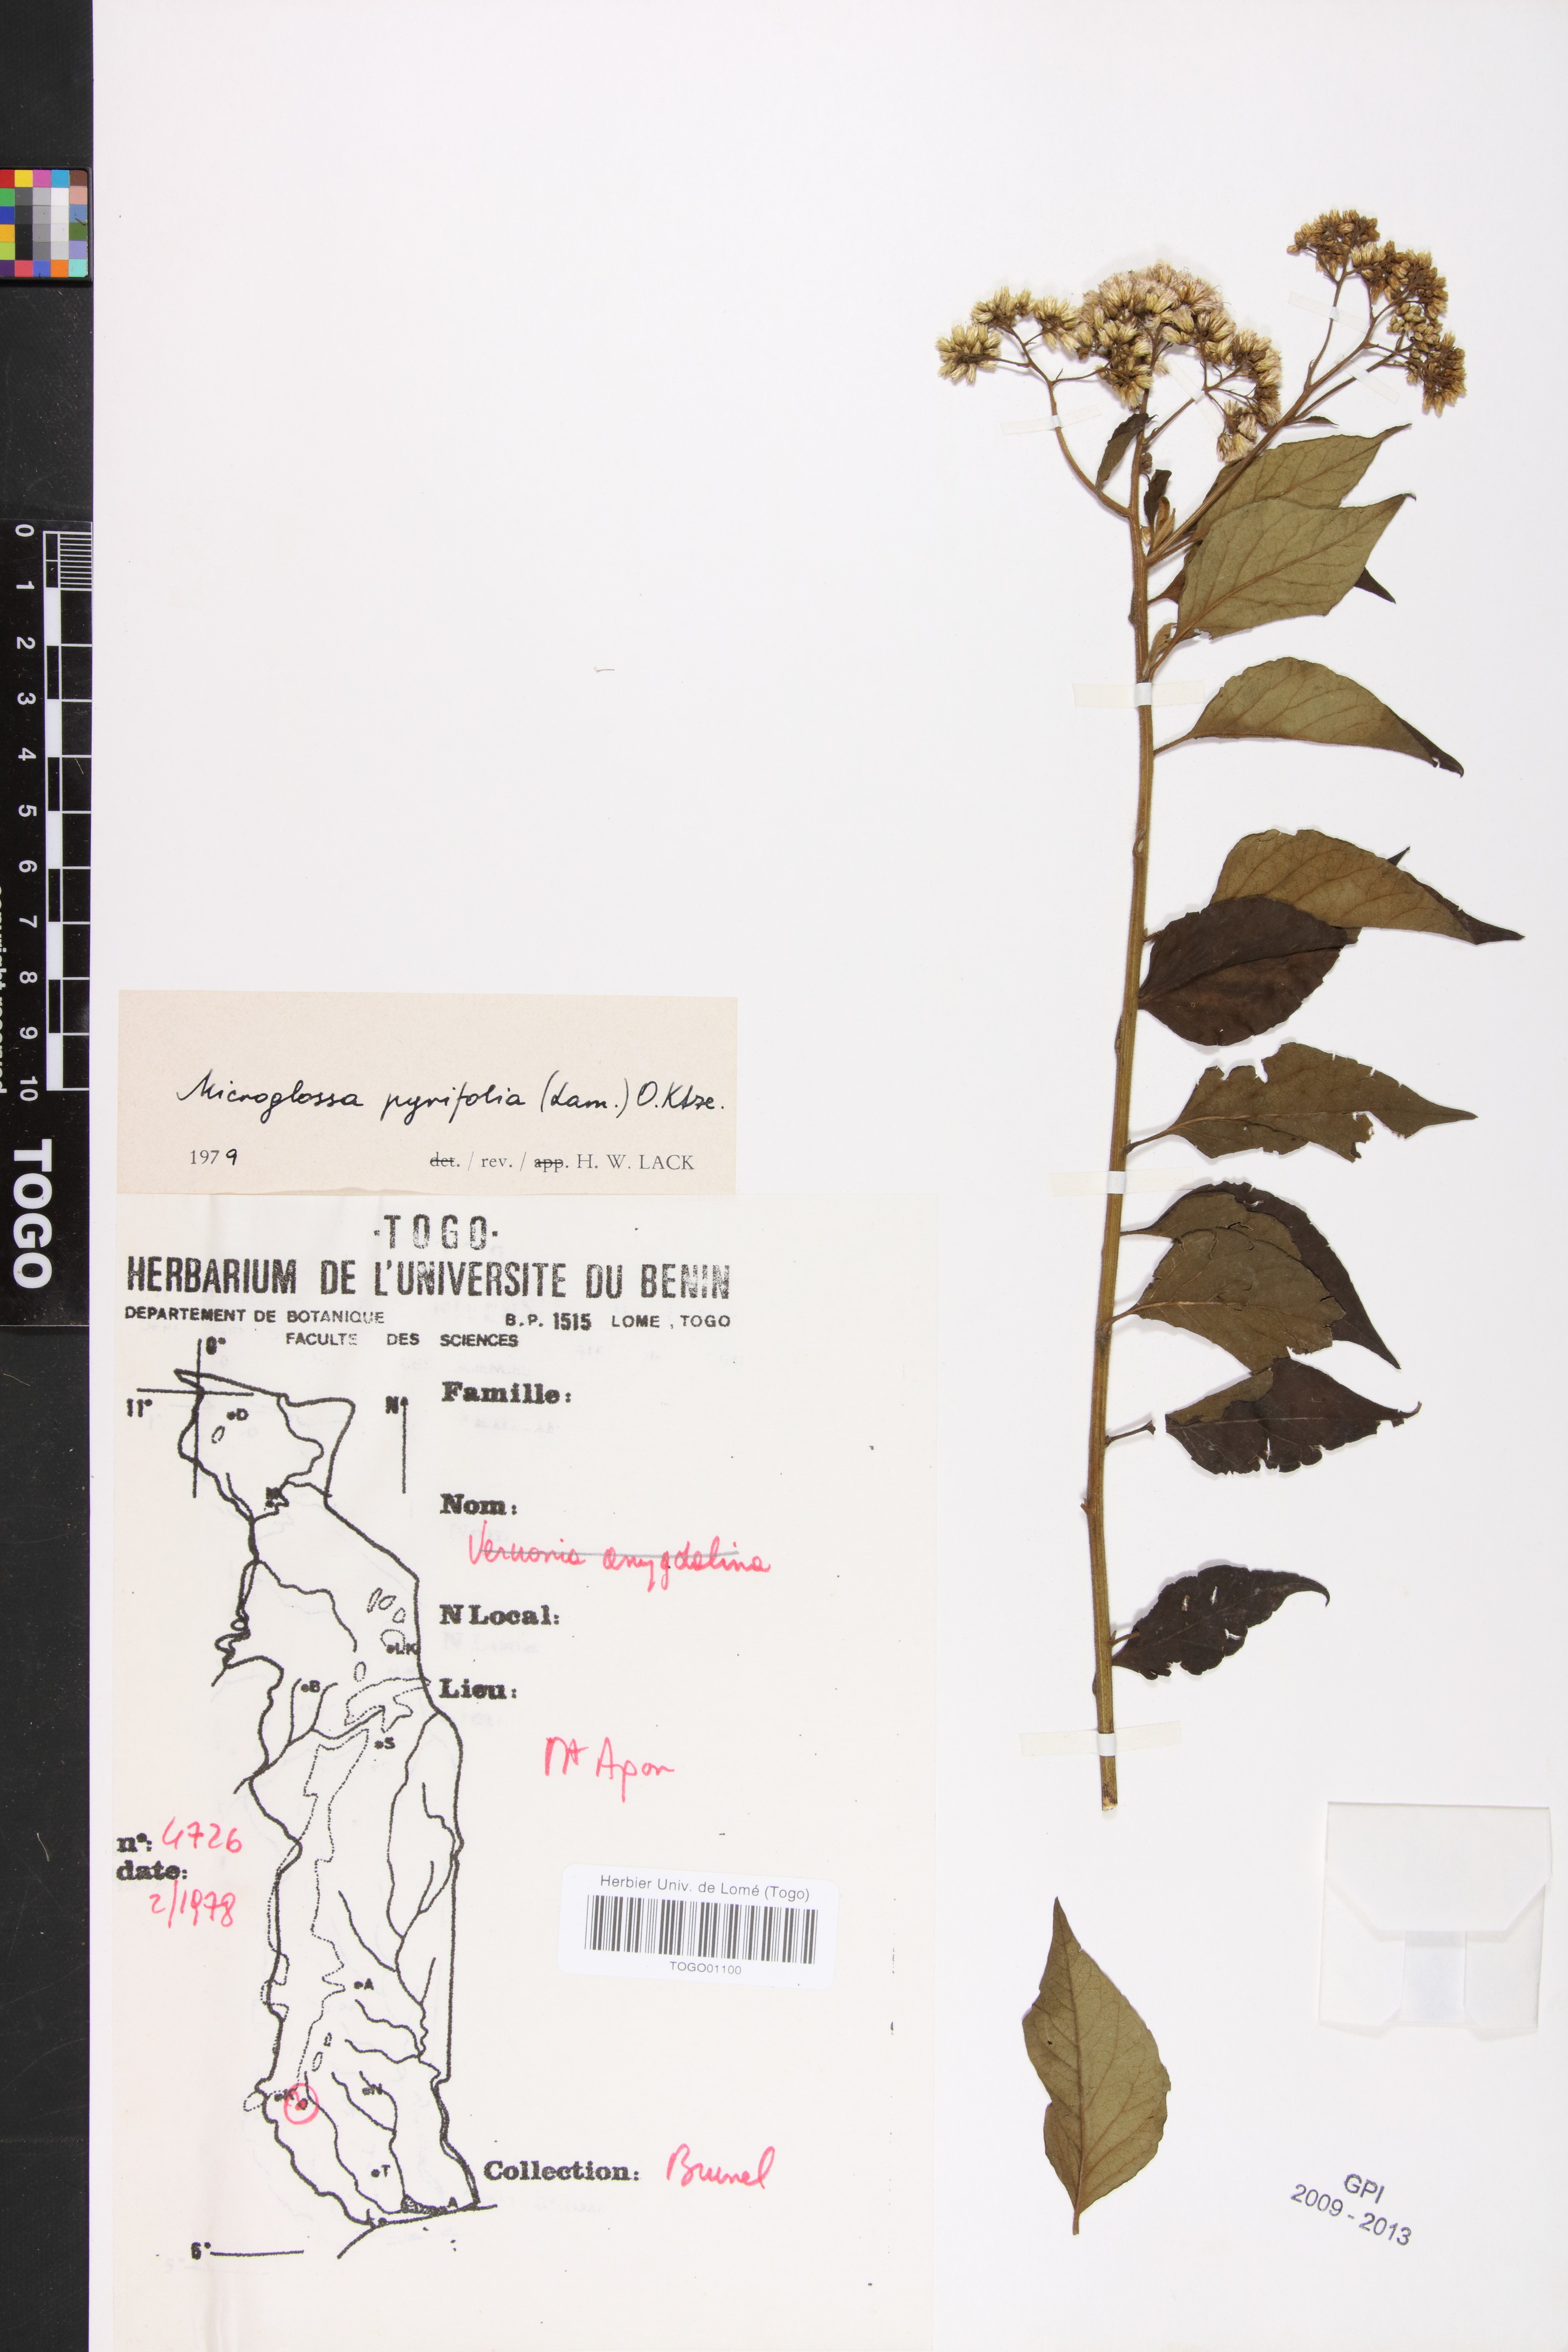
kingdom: Plantae
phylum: Tracheophyta
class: Magnoliopsida
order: Asterales
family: Asteraceae
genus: Microglossa
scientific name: Microglossa pyrifolia
